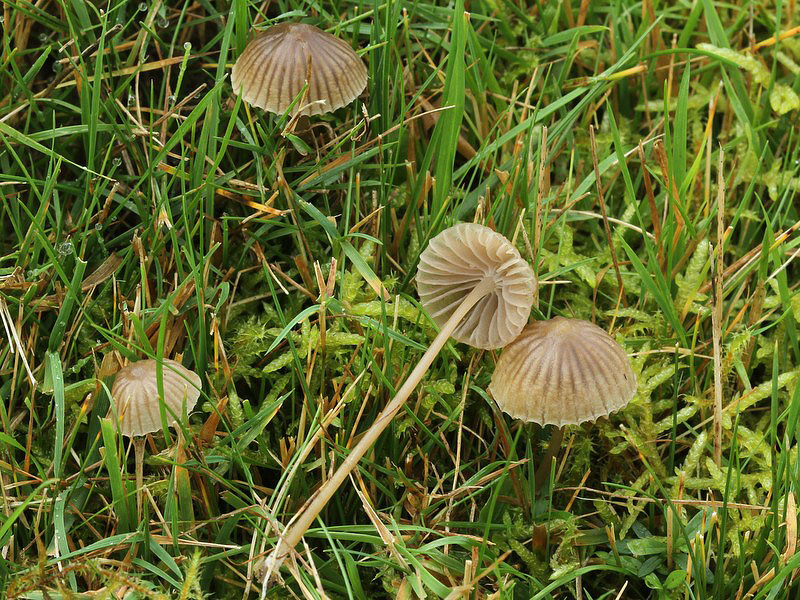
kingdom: Fungi
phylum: Basidiomycota
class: Agaricomycetes
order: Agaricales
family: Mycenaceae
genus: Mycena
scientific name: Mycena aetites
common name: plæne-huesvamp
